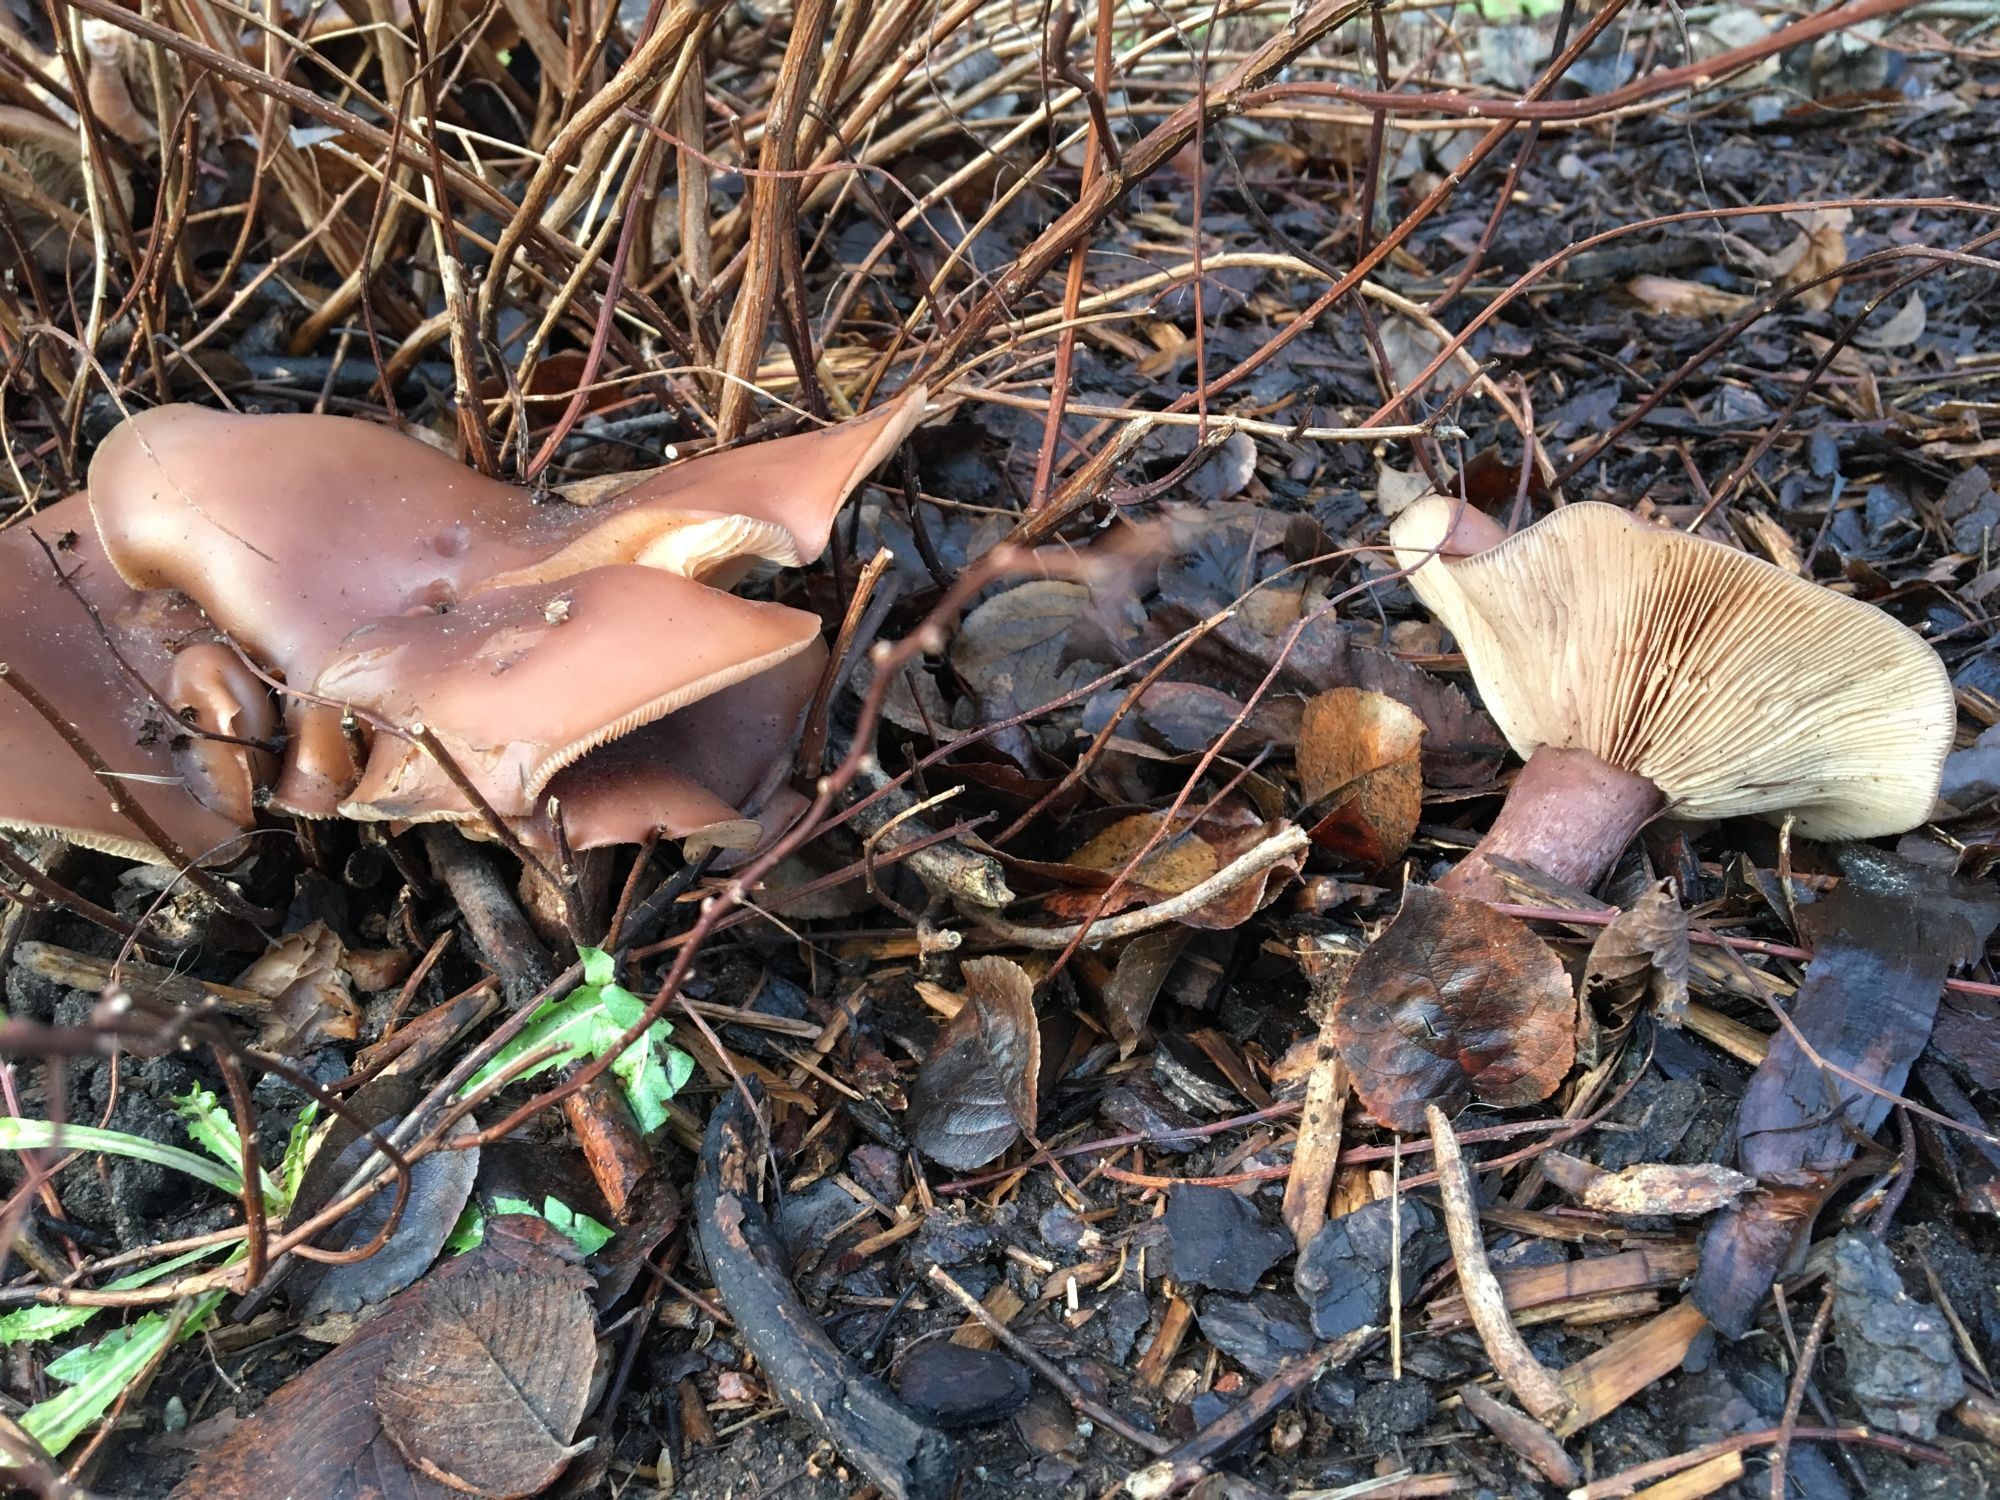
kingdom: Fungi
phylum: Basidiomycota
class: Agaricomycetes
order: Agaricales
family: Tricholomataceae
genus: Lepista
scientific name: Lepista nuda
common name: Wood blewit
